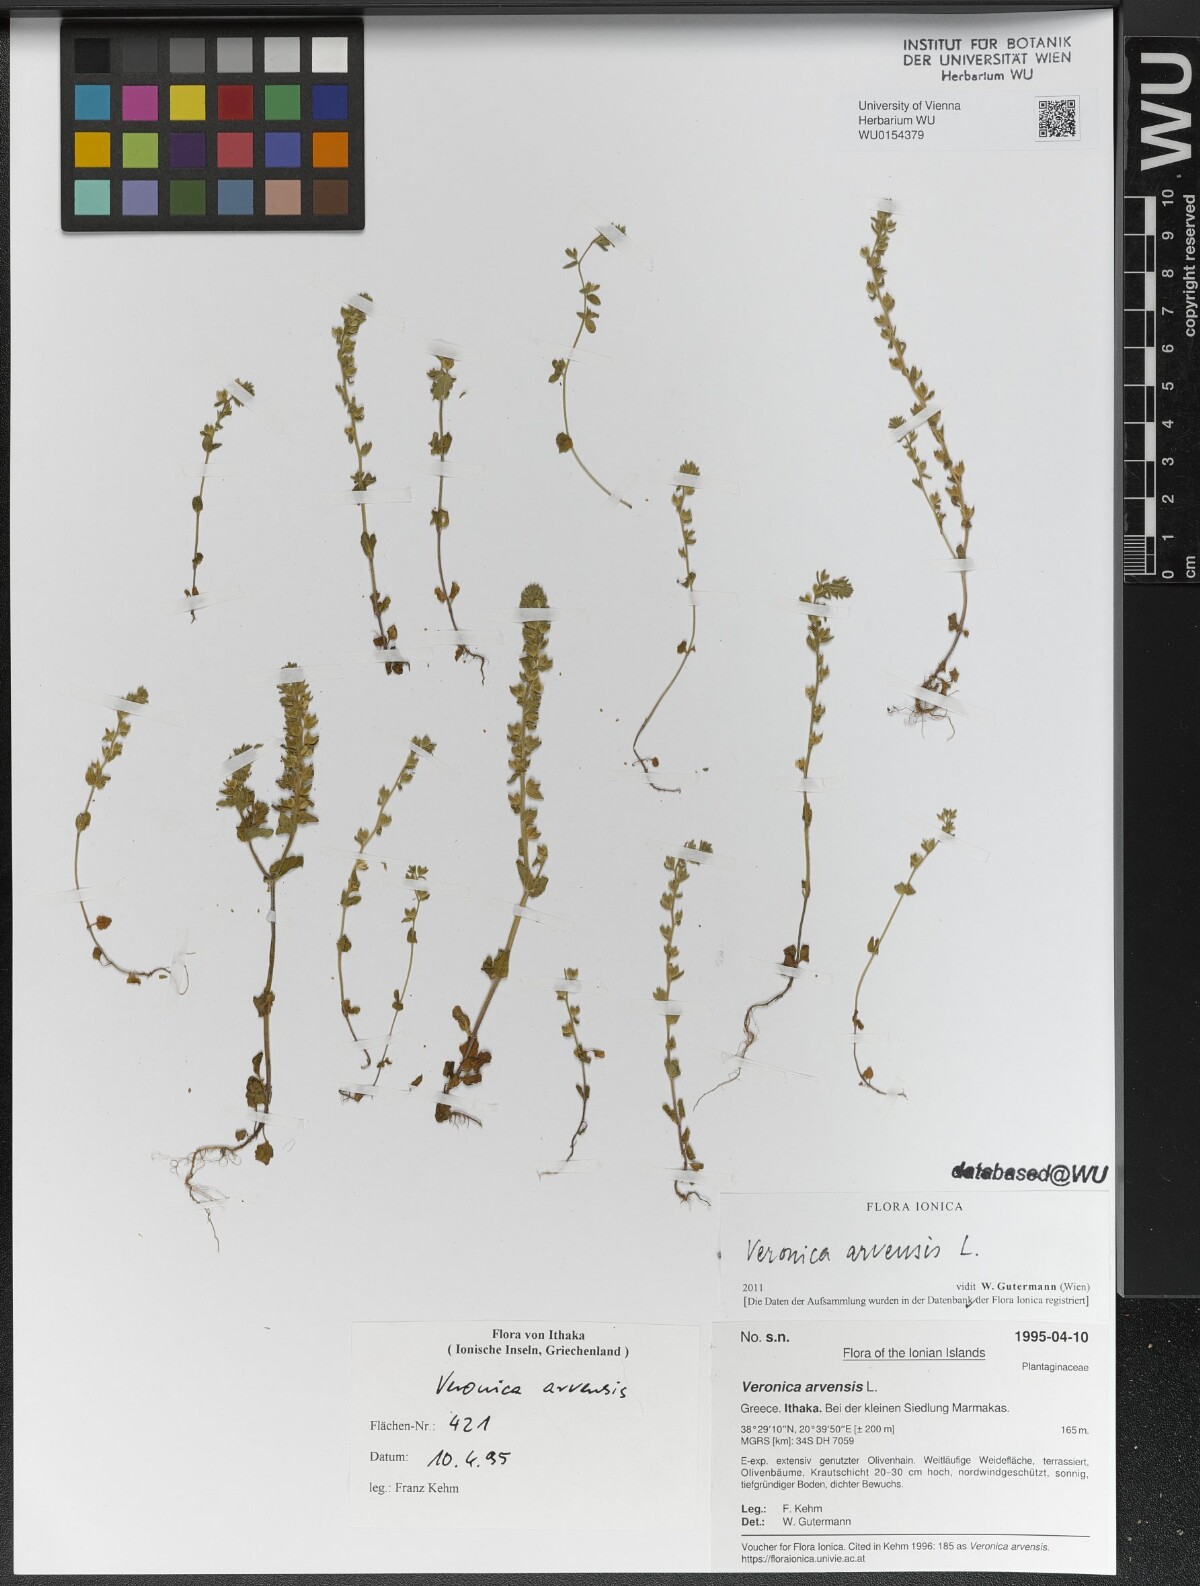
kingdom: Plantae
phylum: Tracheophyta
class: Magnoliopsida
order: Lamiales
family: Plantaginaceae
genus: Veronica
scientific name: Veronica arvensis
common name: Corn speedwell
